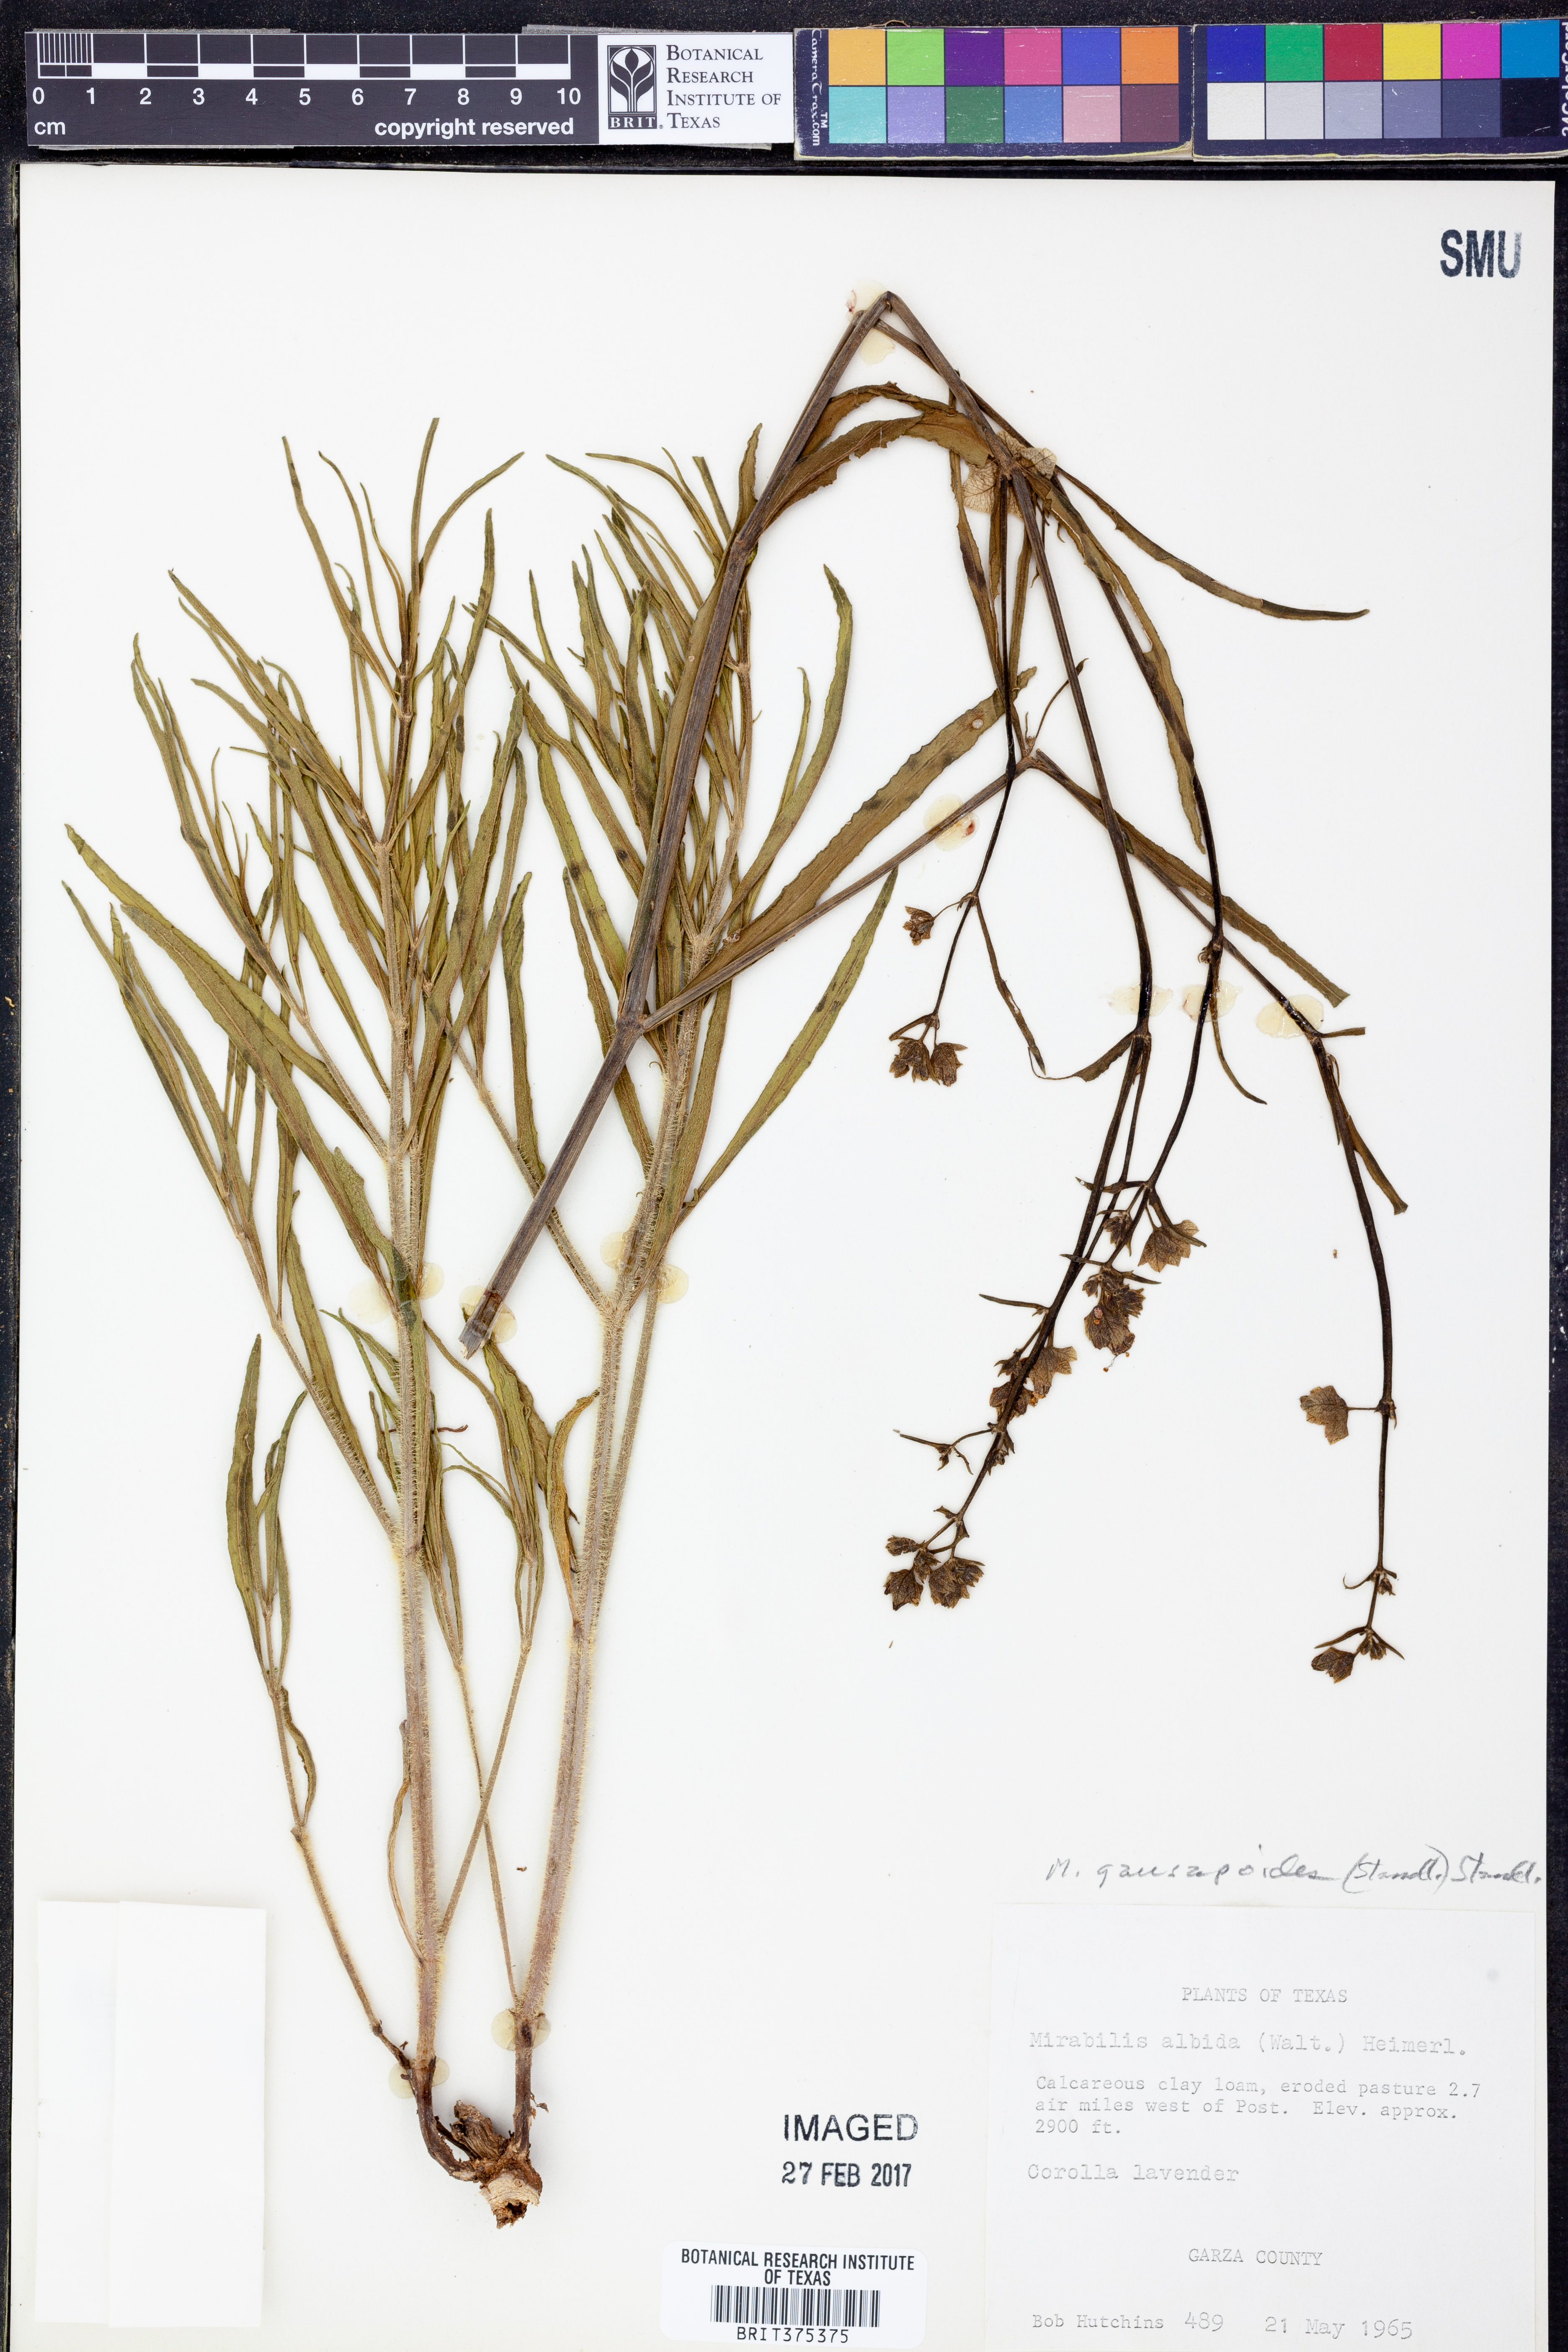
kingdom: Plantae
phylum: Tracheophyta
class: Magnoliopsida
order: Caryophyllales
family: Nyctaginaceae
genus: Mirabilis
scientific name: Mirabilis linearis
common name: Linear-leaved four-o'clock
